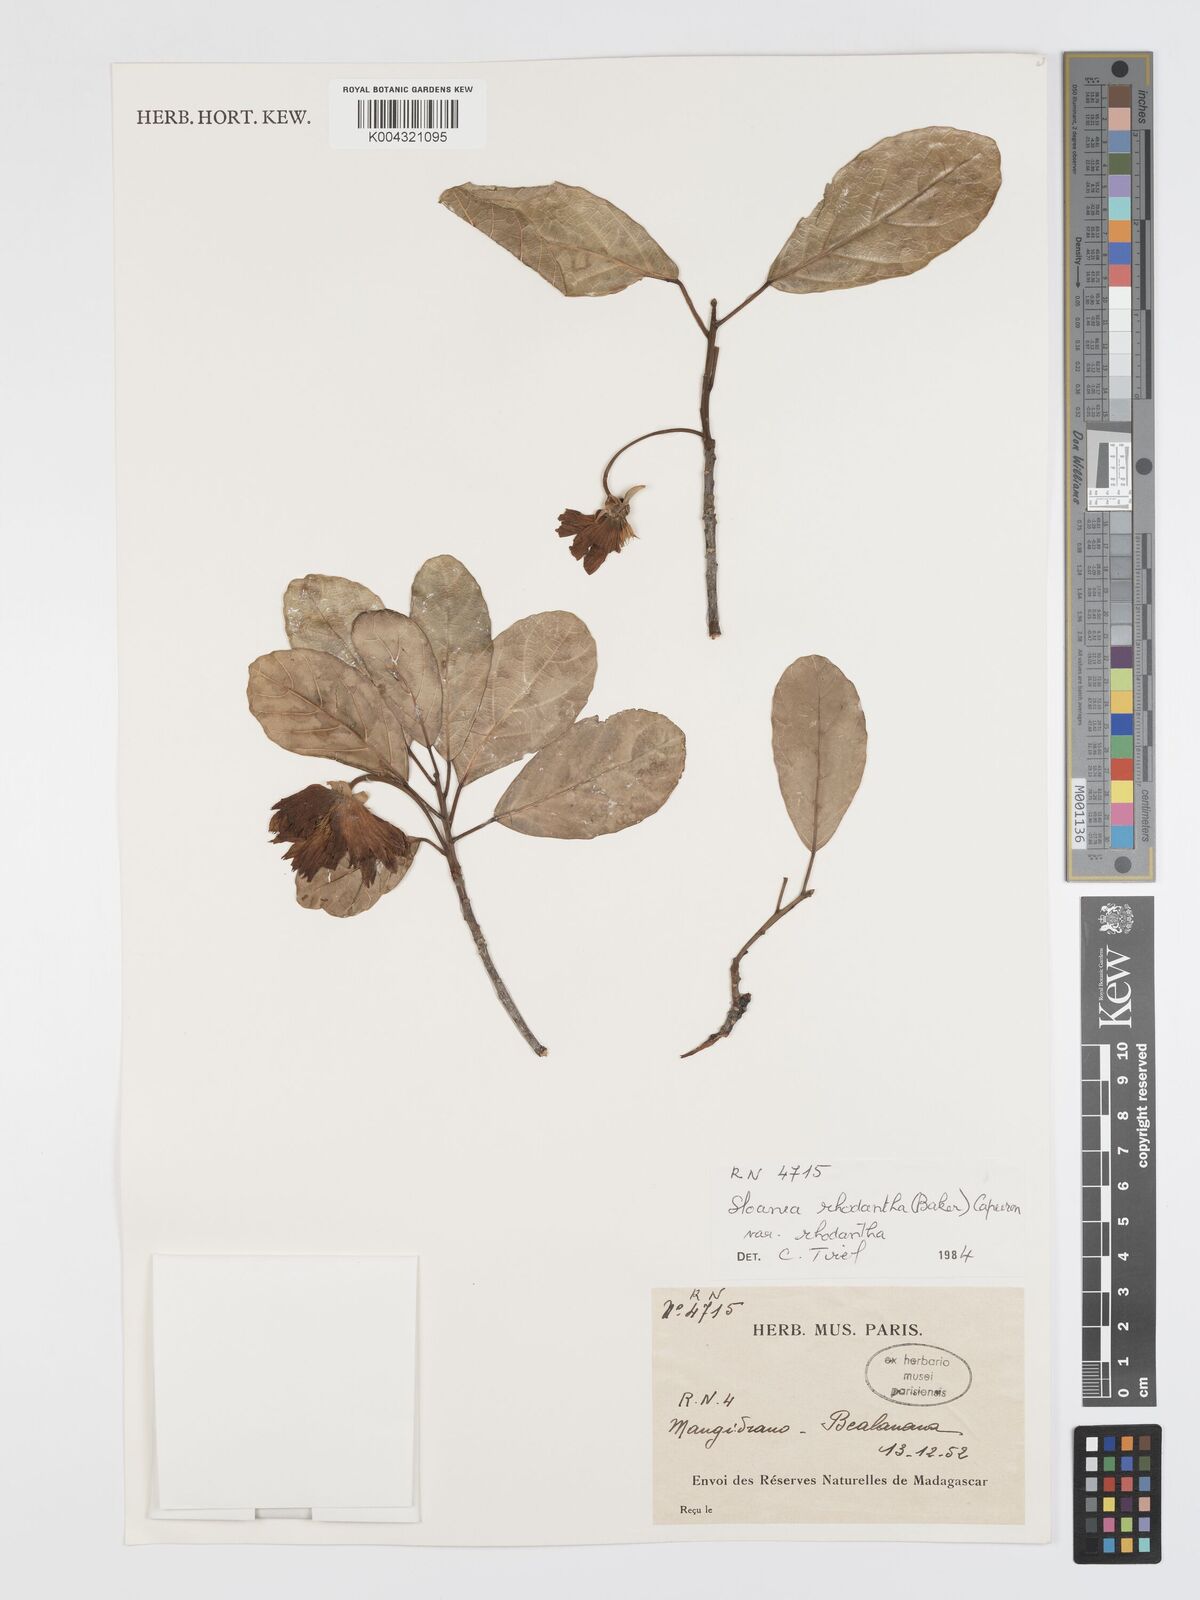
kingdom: Plantae
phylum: Tracheophyta
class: Magnoliopsida
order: Oxalidales
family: Elaeocarpaceae
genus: Sloanea
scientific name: Sloanea rhodantha
